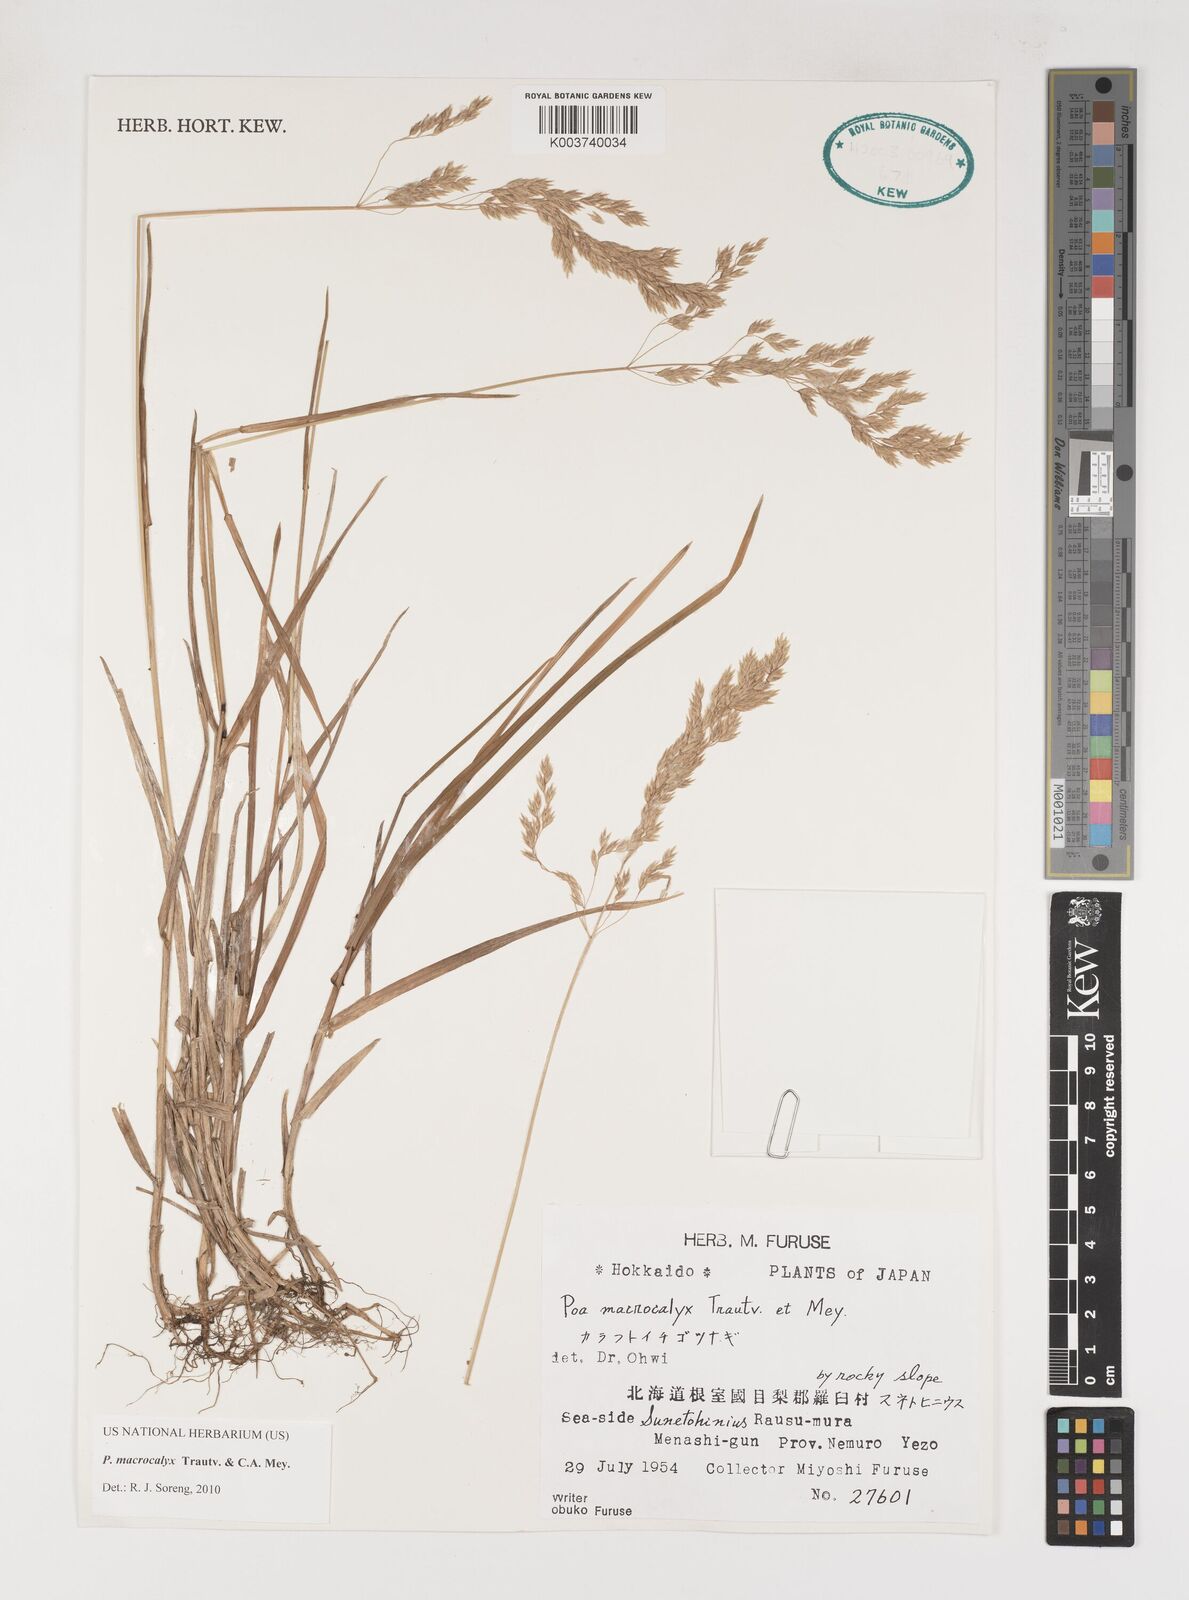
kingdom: Plantae
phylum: Tracheophyta
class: Liliopsida
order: Poales
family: Poaceae
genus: Poa
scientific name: Poa macrocalyx
